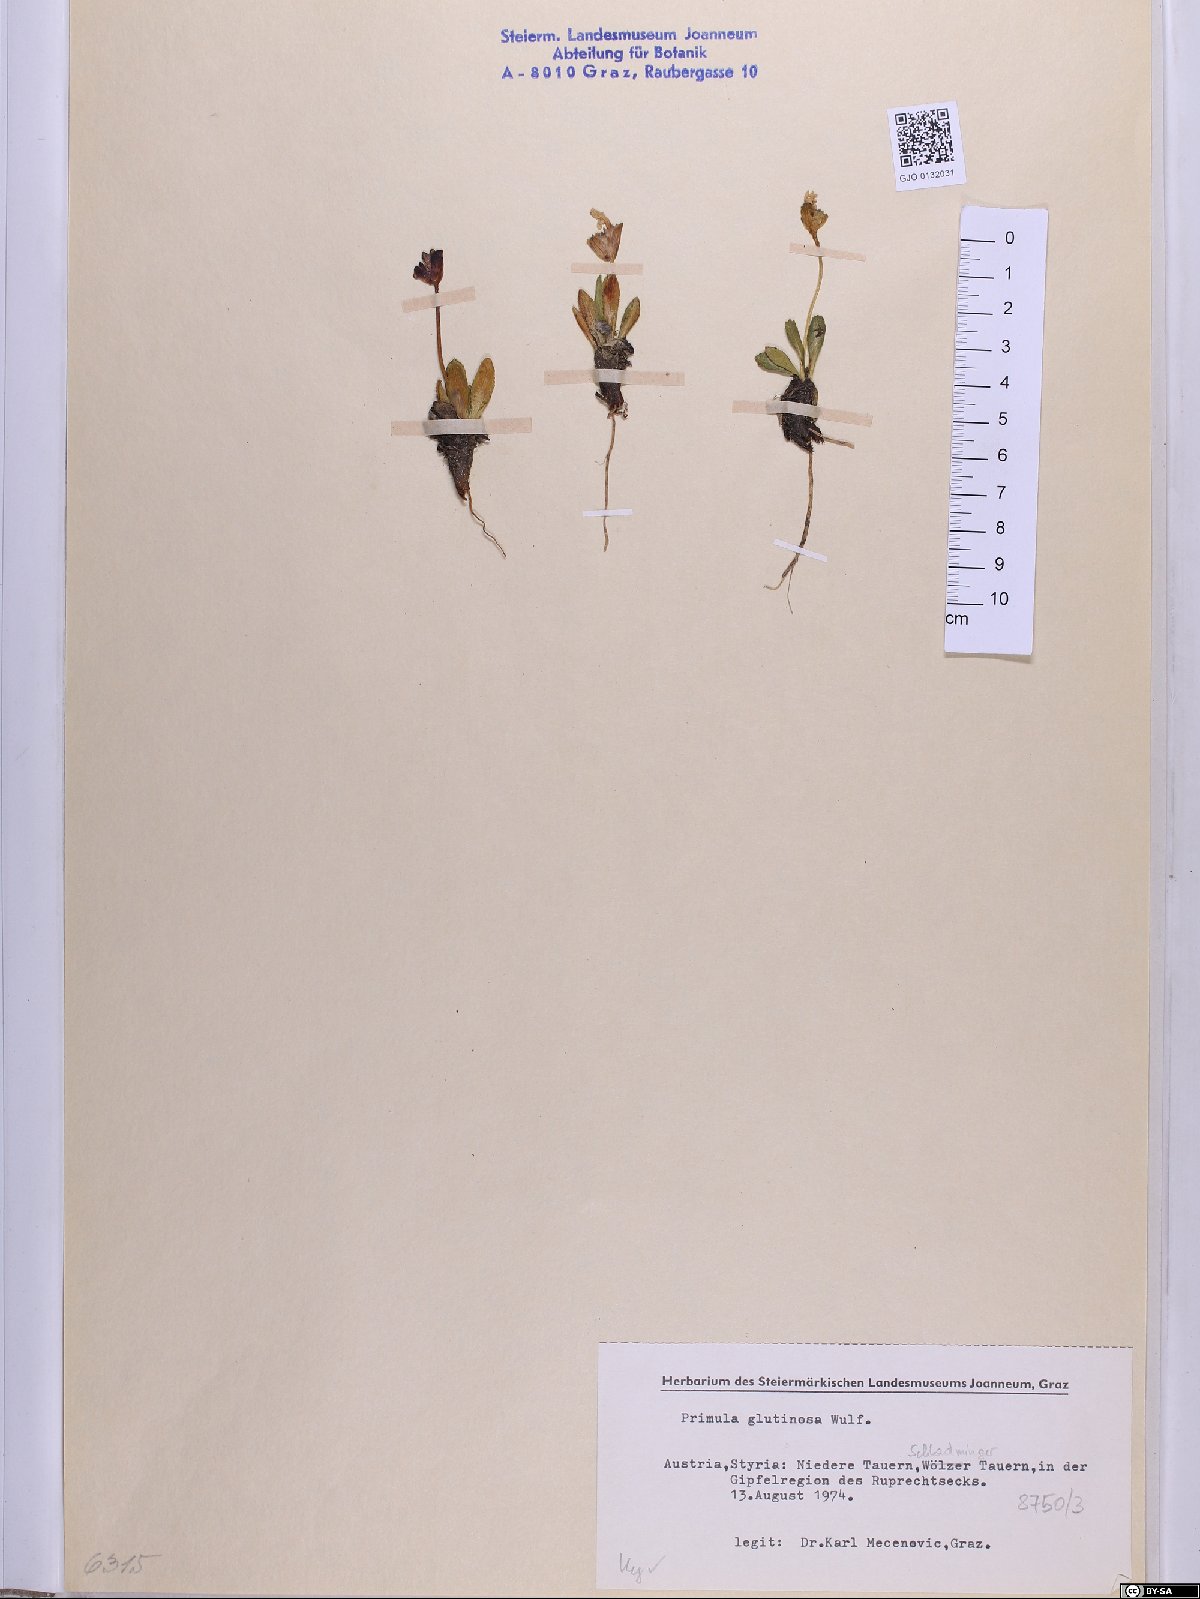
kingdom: Plantae
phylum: Tracheophyta
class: Magnoliopsida
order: Ericales
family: Primulaceae
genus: Primula
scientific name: Primula glutinosa
